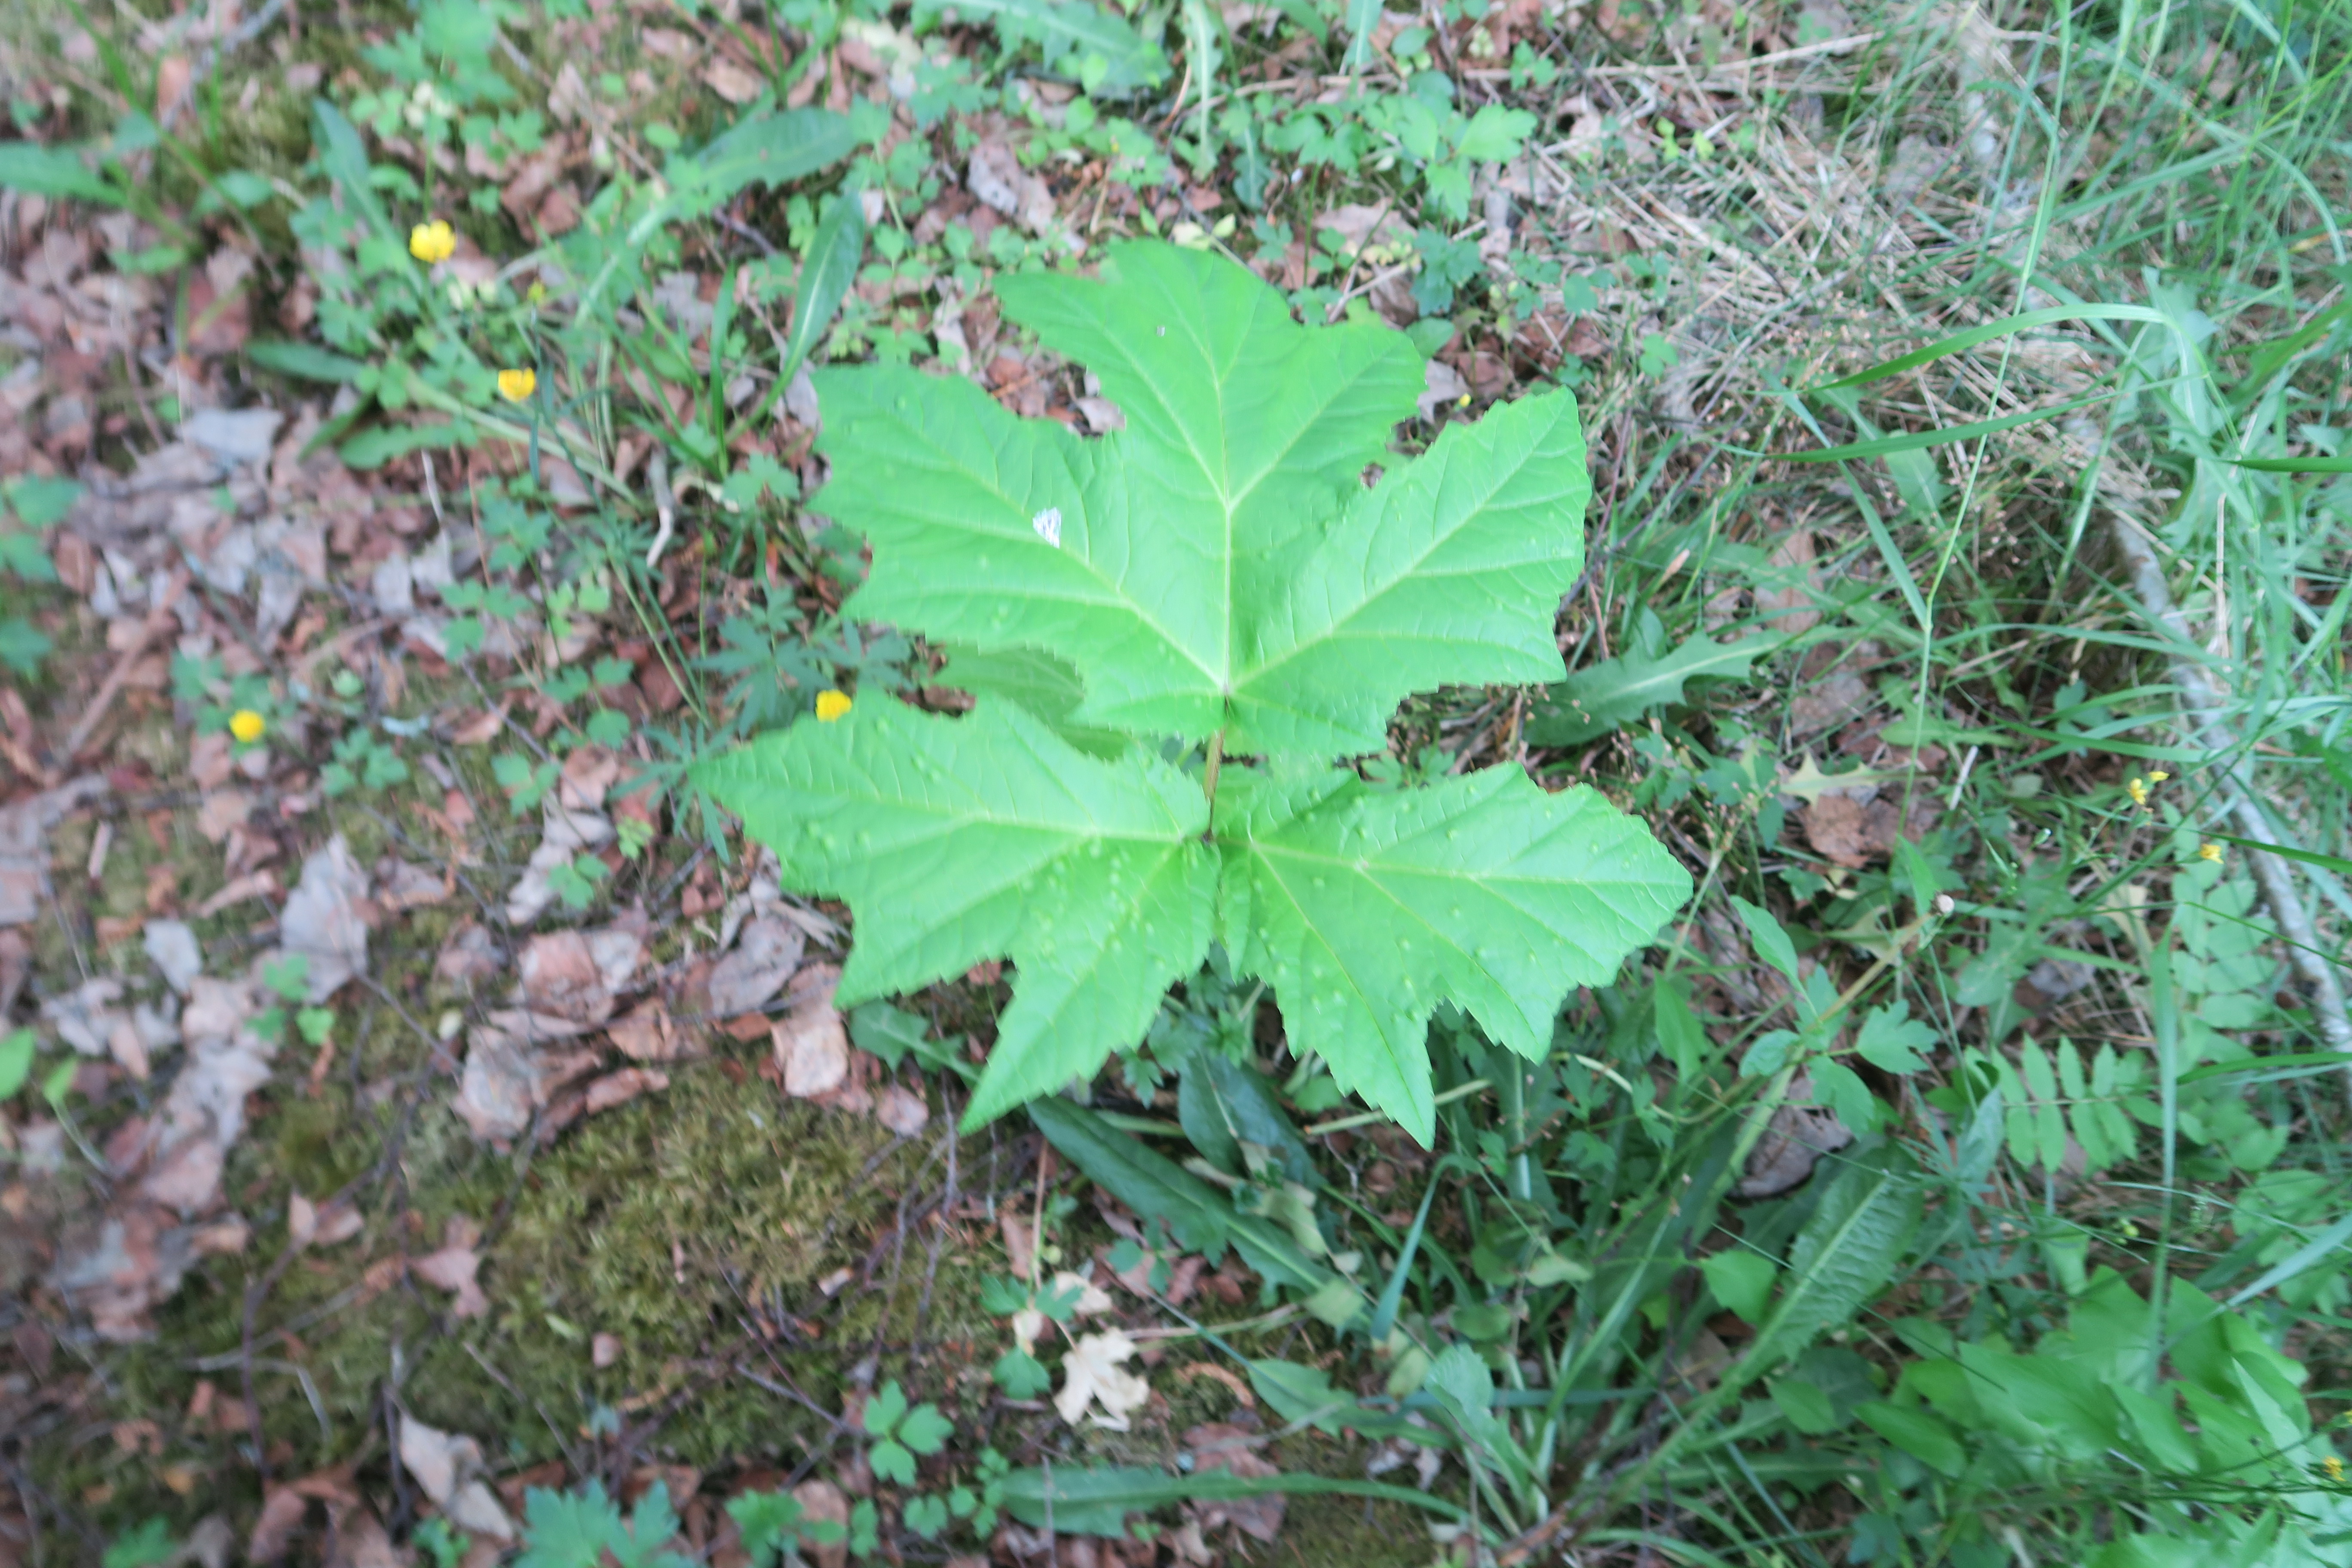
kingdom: Plantae
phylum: Tracheophyta
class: Magnoliopsida
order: Apiales
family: Apiaceae
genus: Heracleum
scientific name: Heracleum
